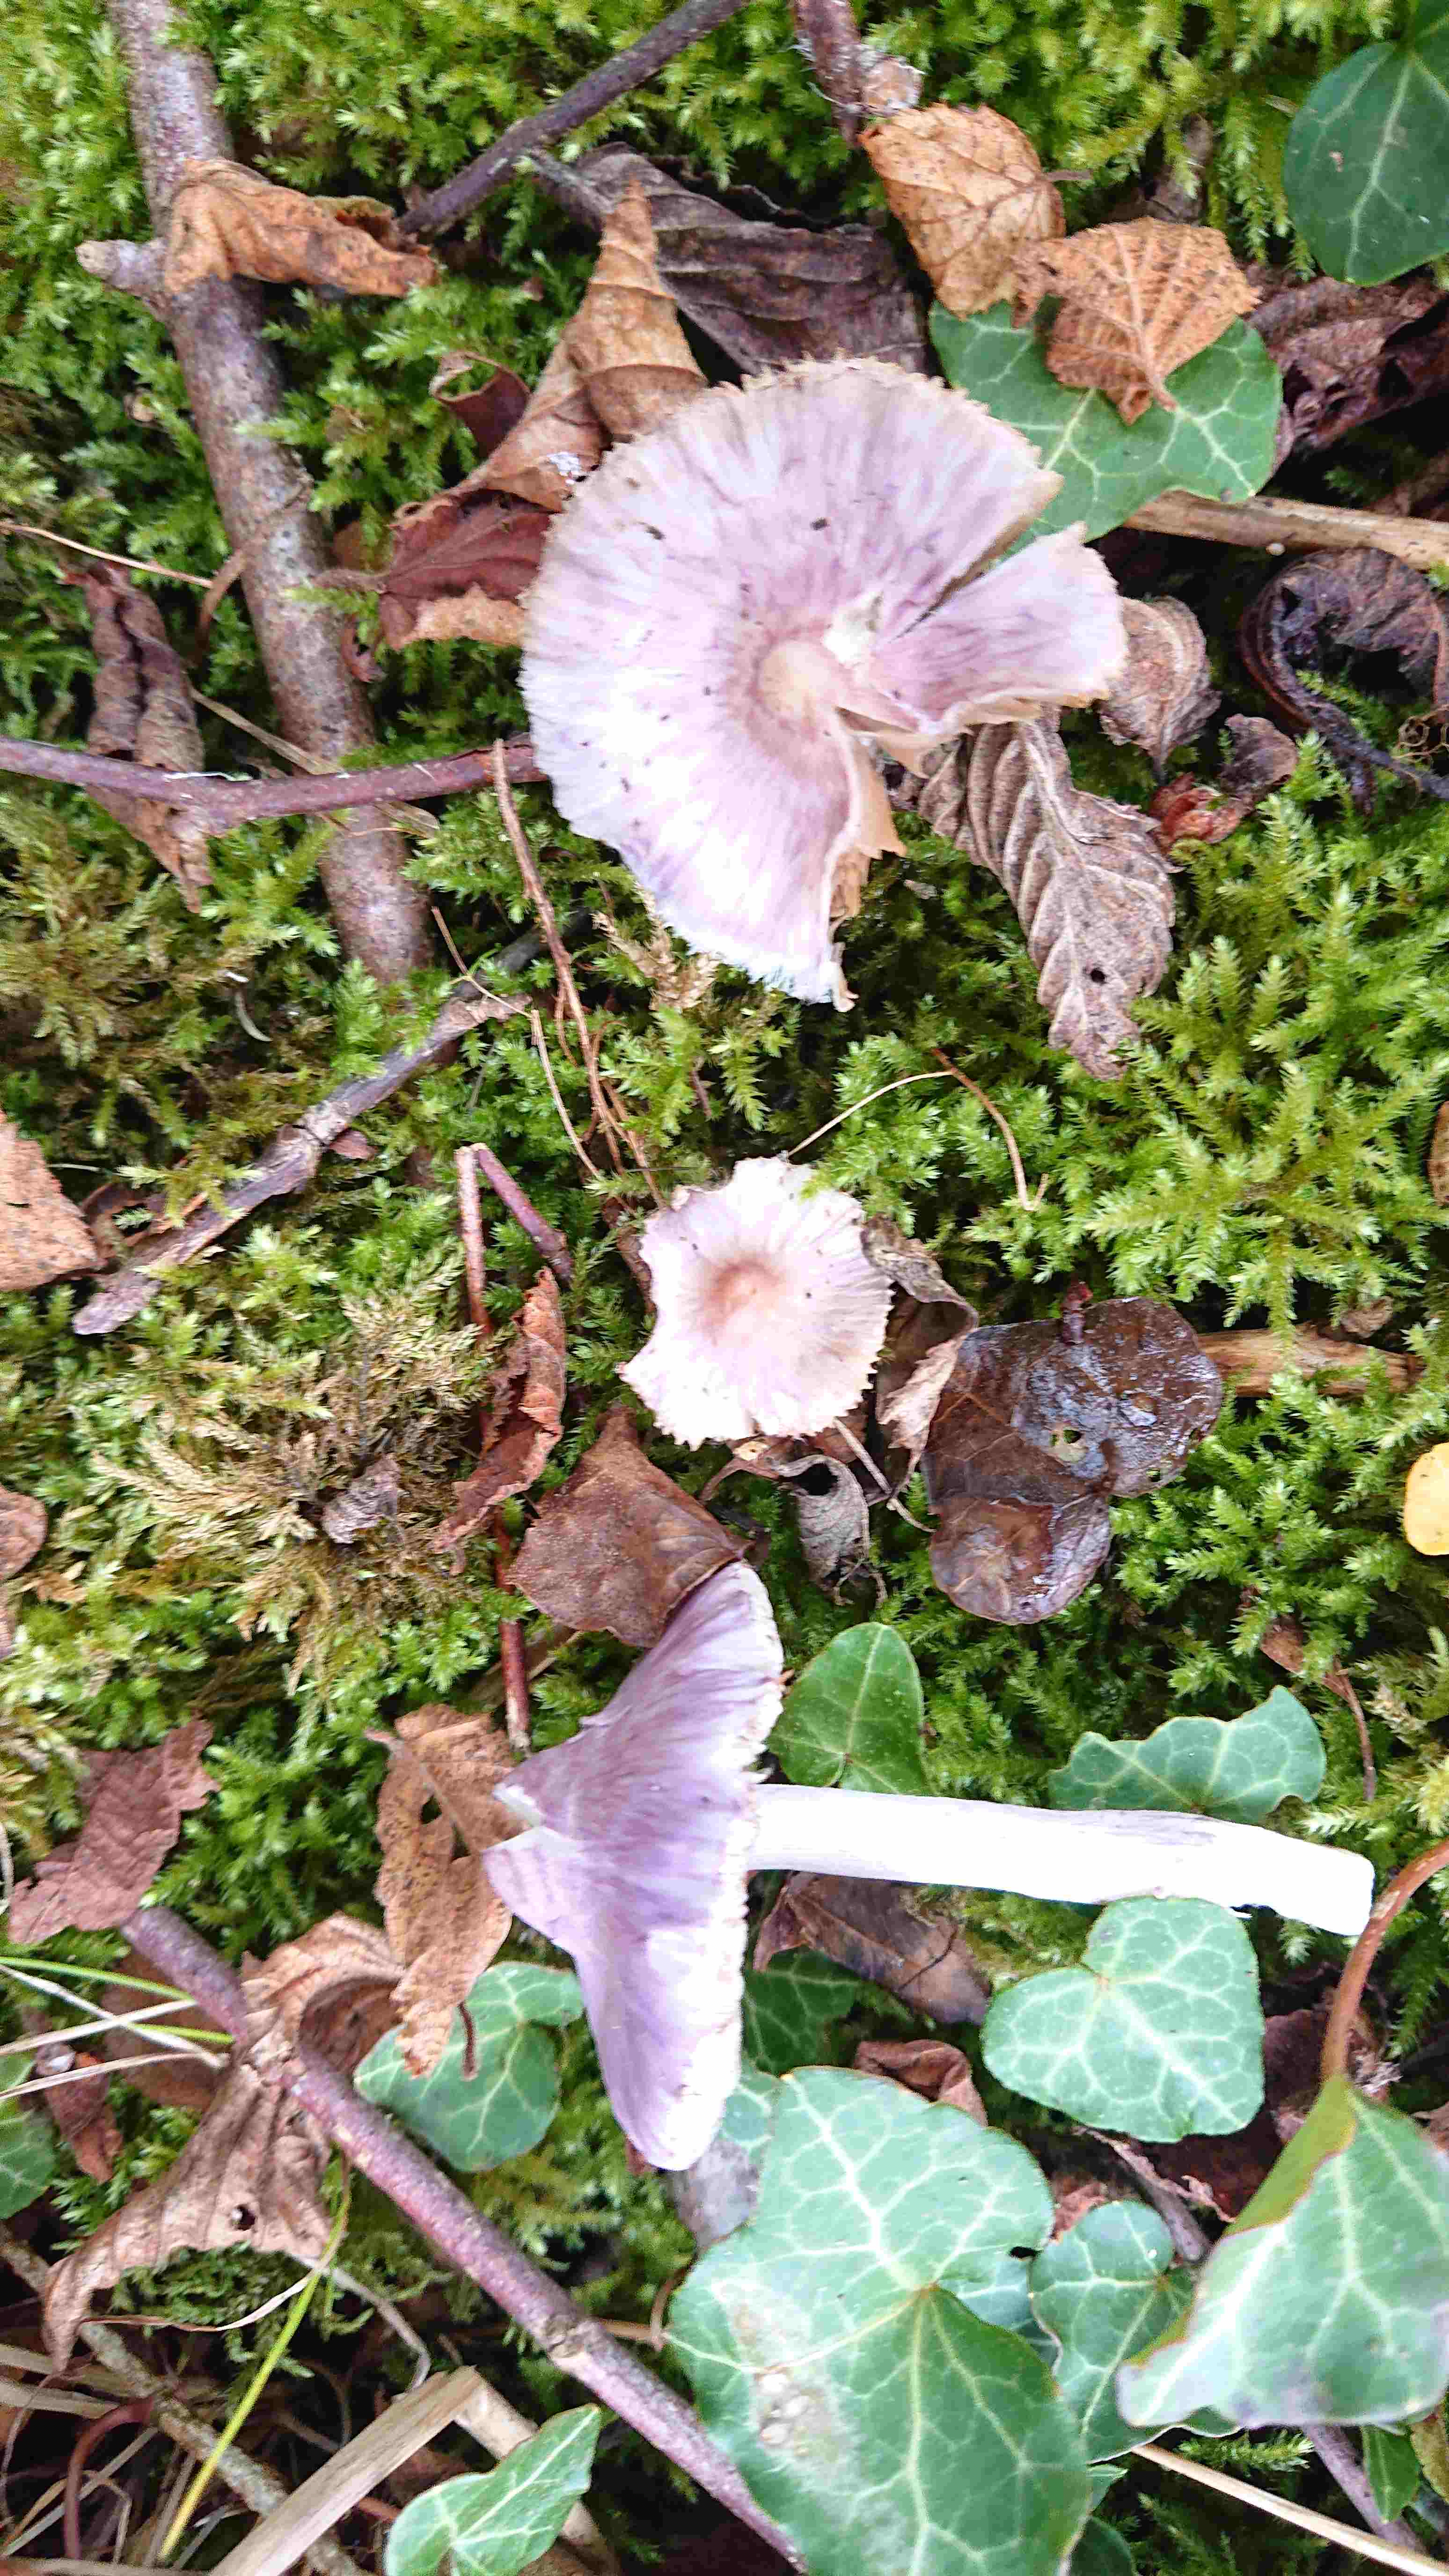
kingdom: Fungi
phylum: Basidiomycota
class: Agaricomycetes
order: Agaricales
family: Inocybaceae
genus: Inocybe
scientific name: Inocybe geophylla
